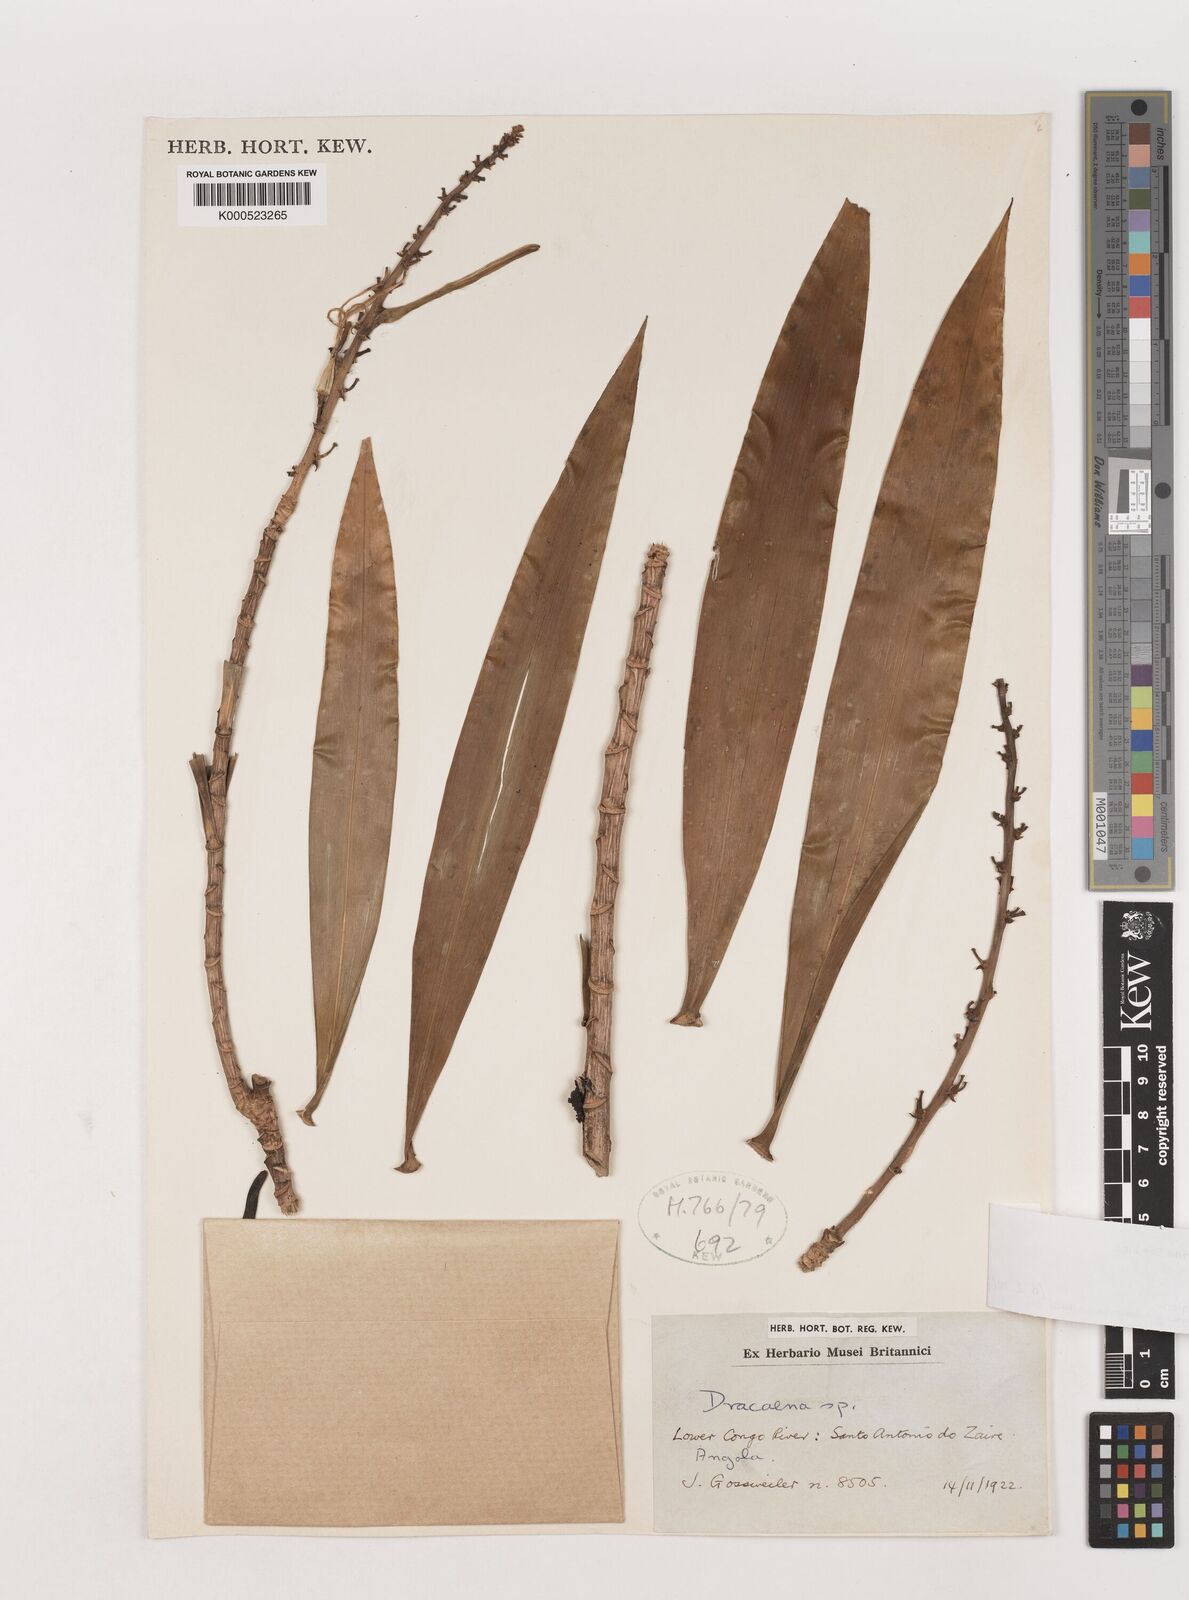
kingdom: Plantae
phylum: Tracheophyta
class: Liliopsida
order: Asparagales
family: Asparagaceae
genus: Dracaena
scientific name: Dracaena marina
